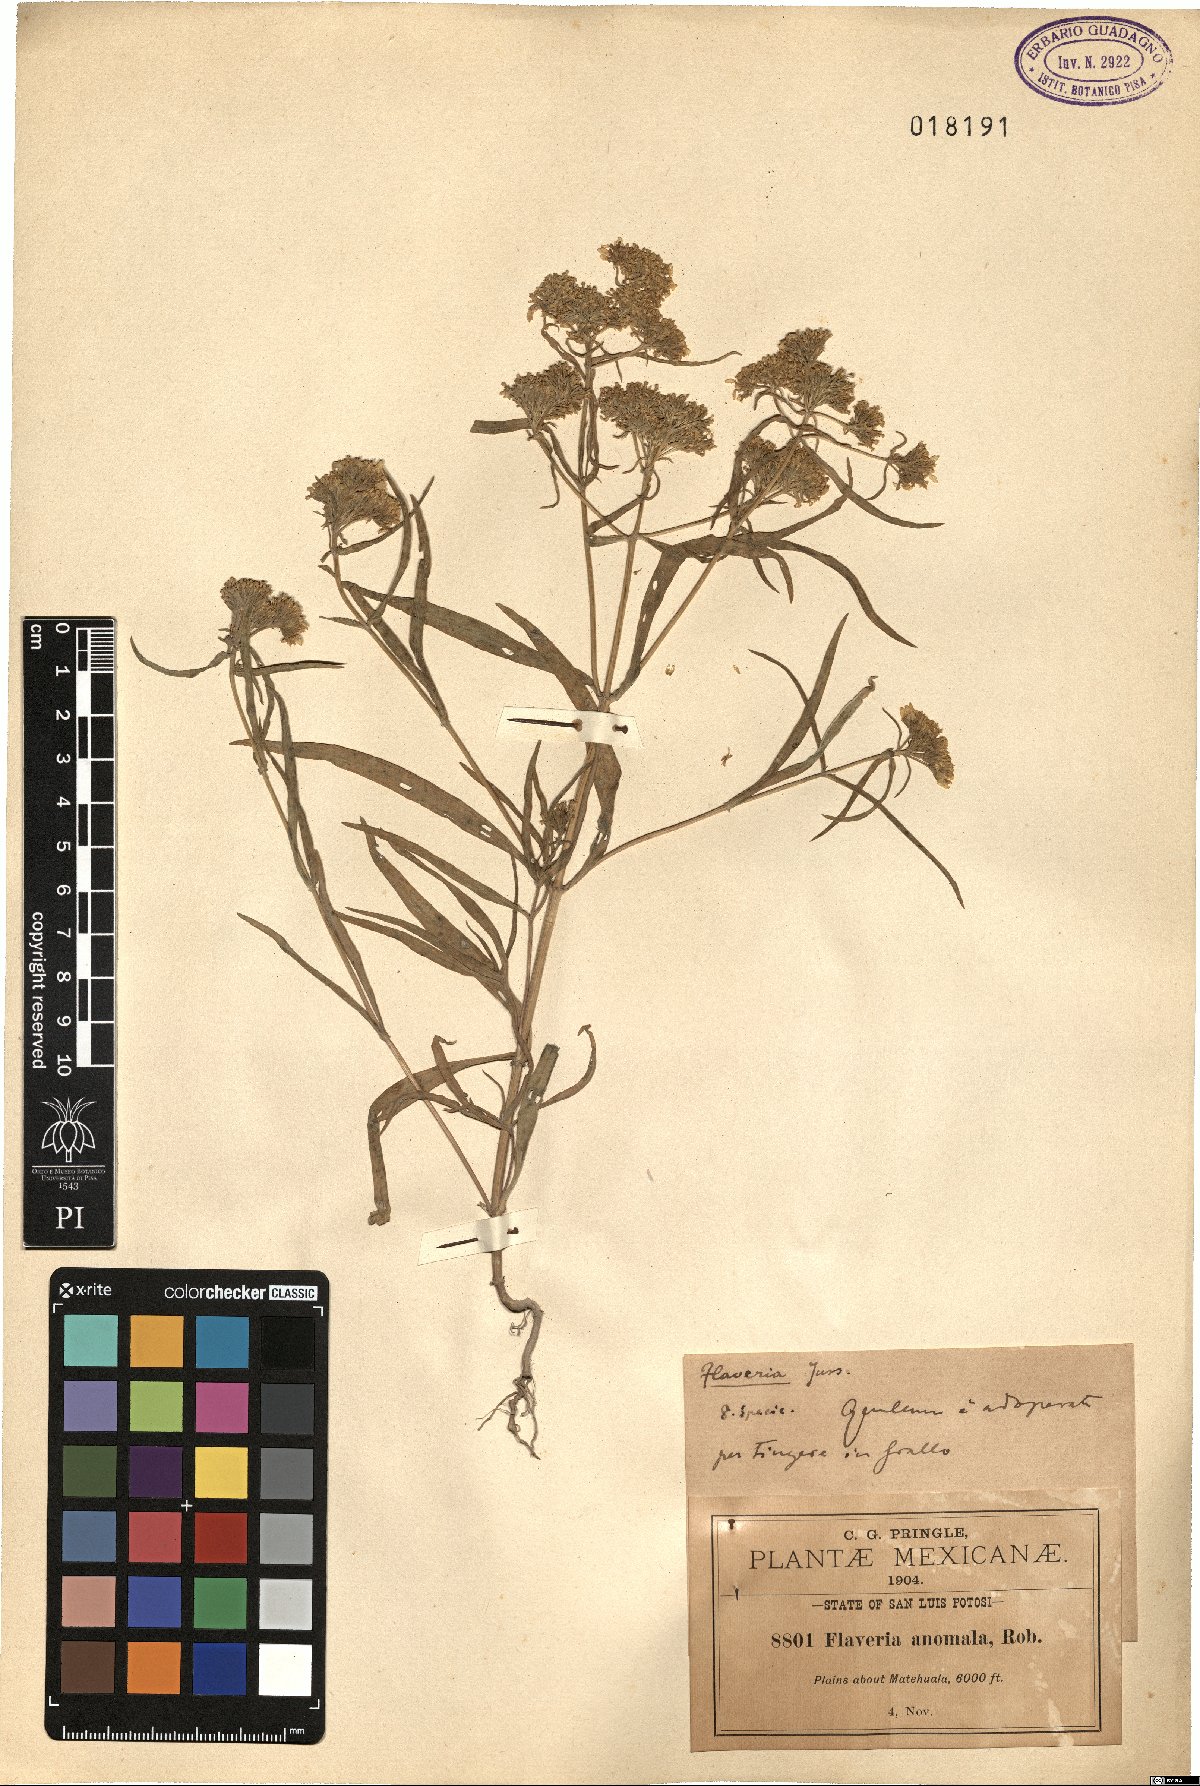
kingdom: Plantae
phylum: Tracheophyta
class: Magnoliopsida
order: Asterales
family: Asteraceae
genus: Flaveria
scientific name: Flaveria anomala
